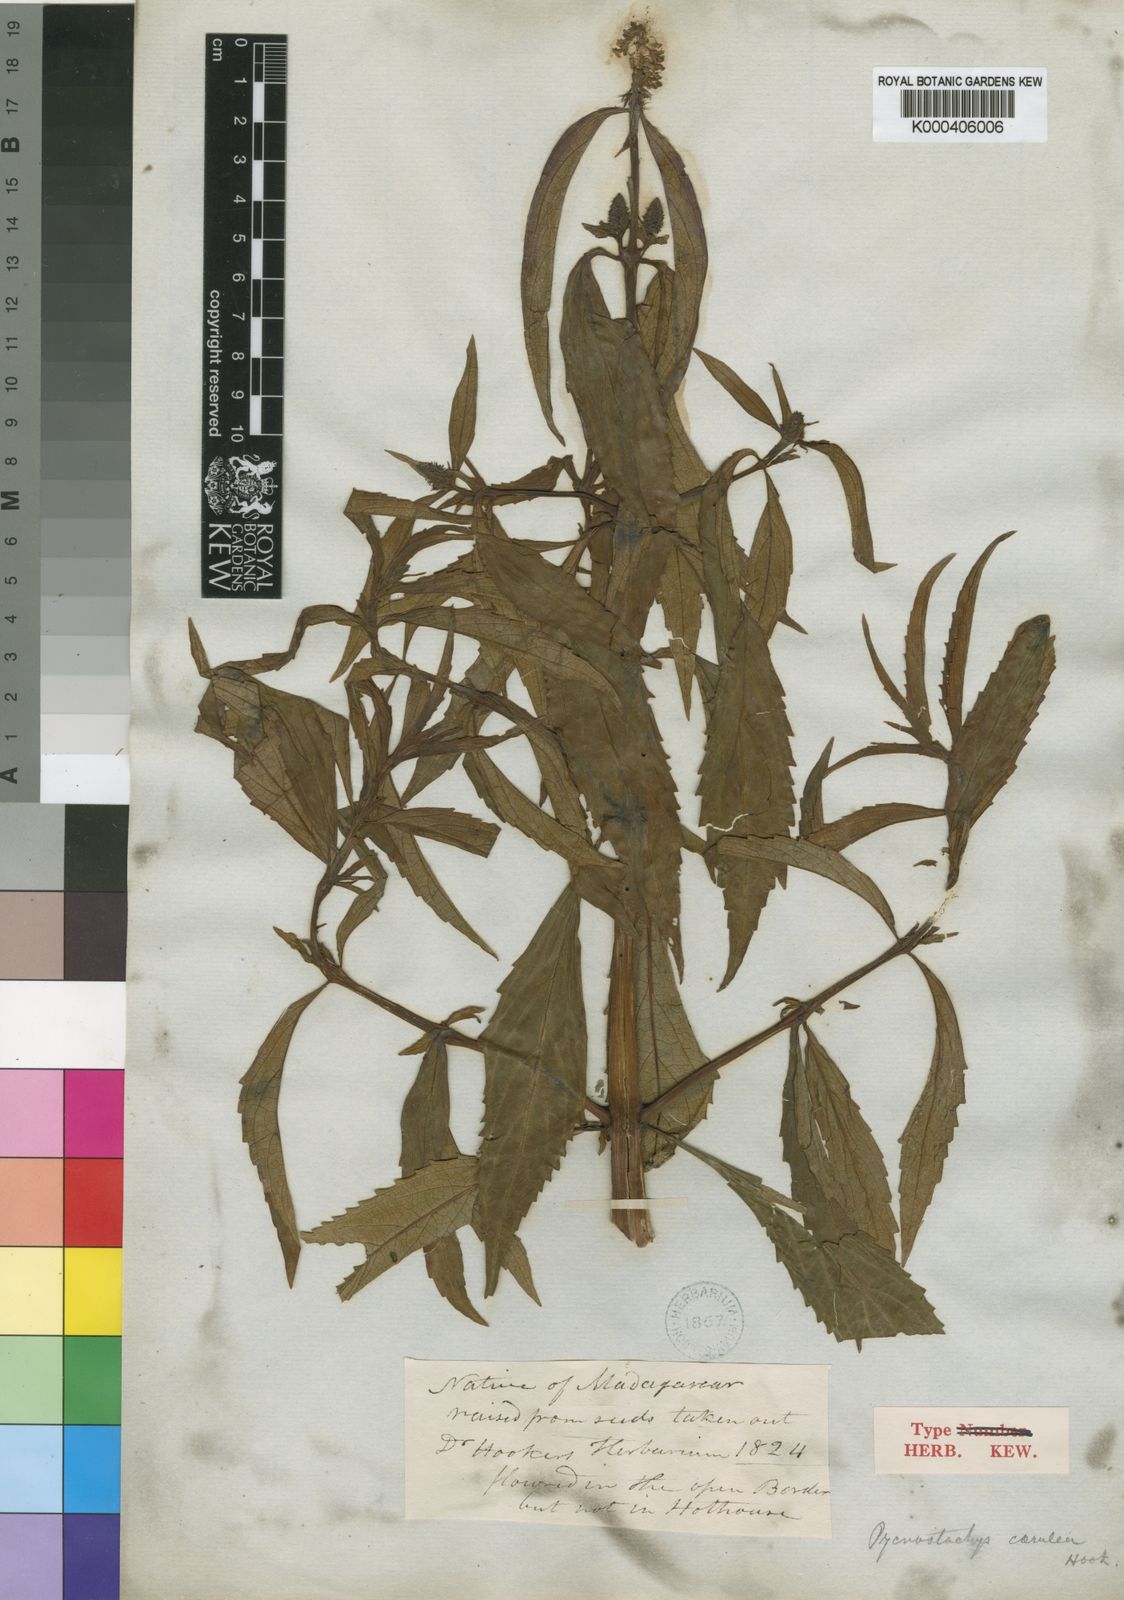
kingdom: Plantae
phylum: Tracheophyta
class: Magnoliopsida
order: Lamiales
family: Lamiaceae
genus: Coleus
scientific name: Coleus stenostachys
